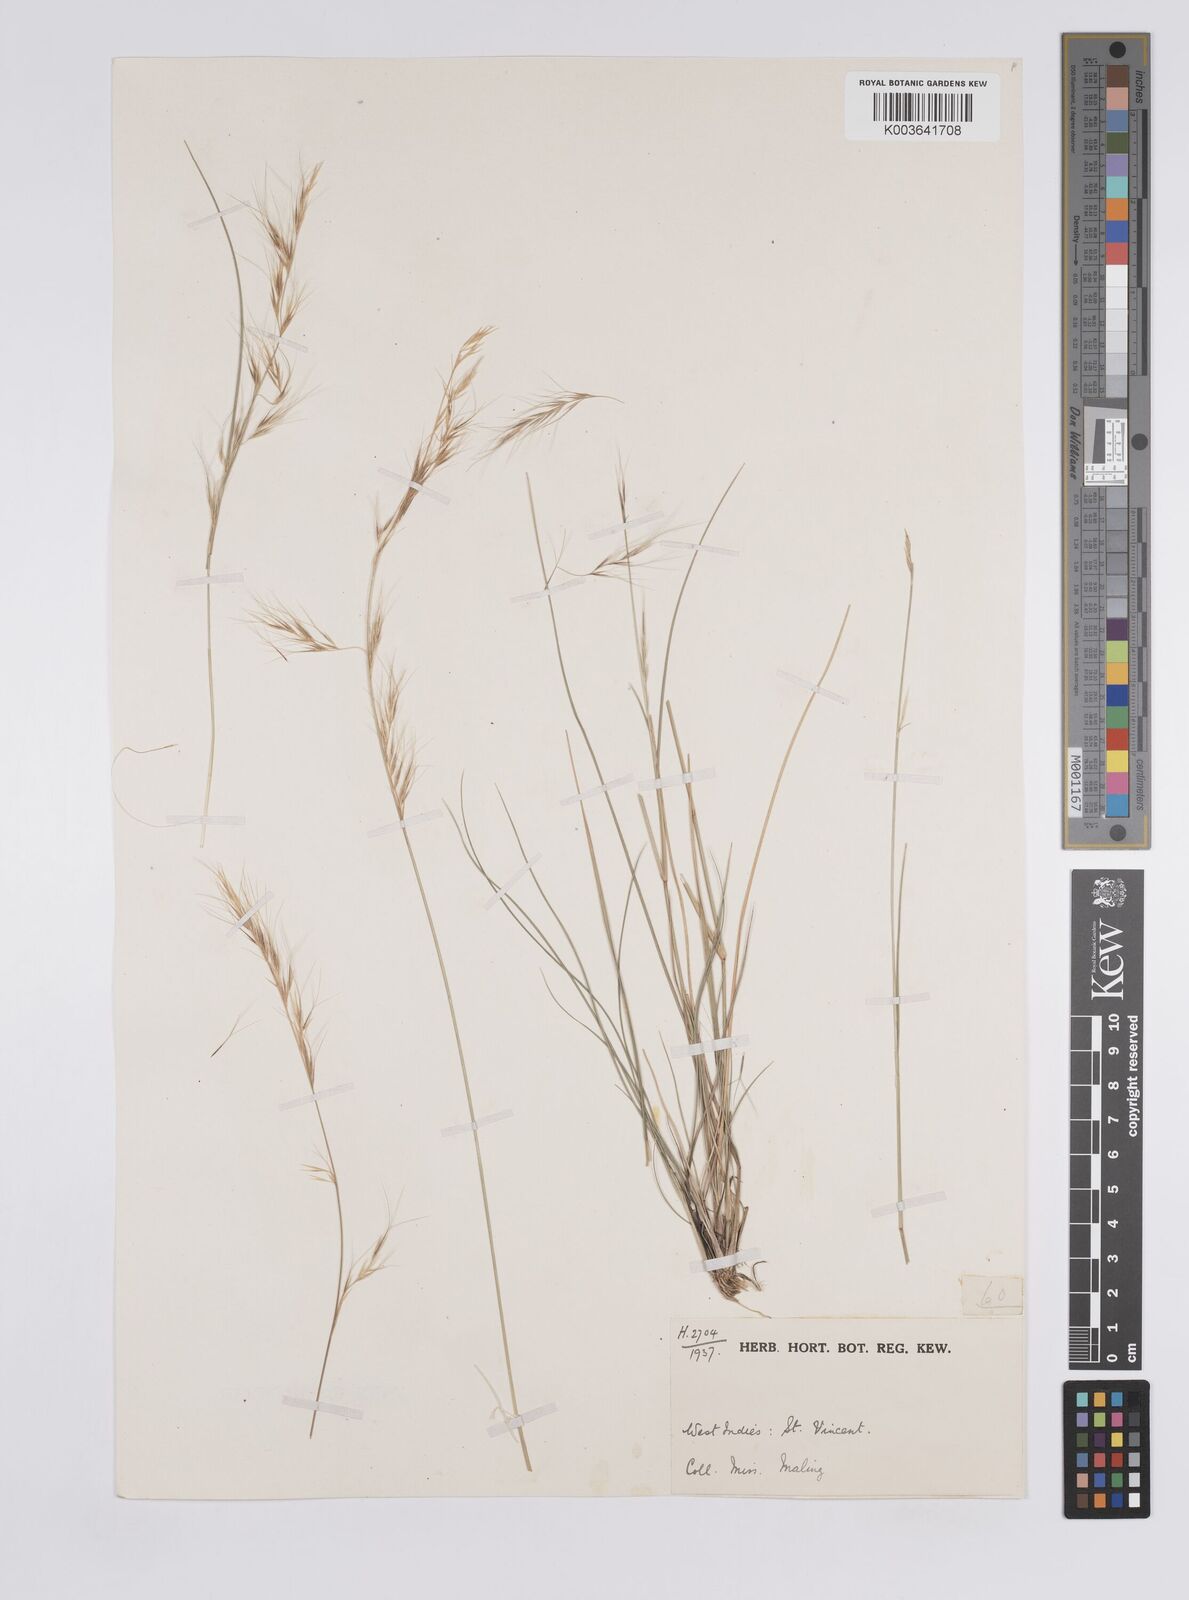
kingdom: Plantae
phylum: Tracheophyta
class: Liliopsida
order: Poales
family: Poaceae
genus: Aristida
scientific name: Aristida
